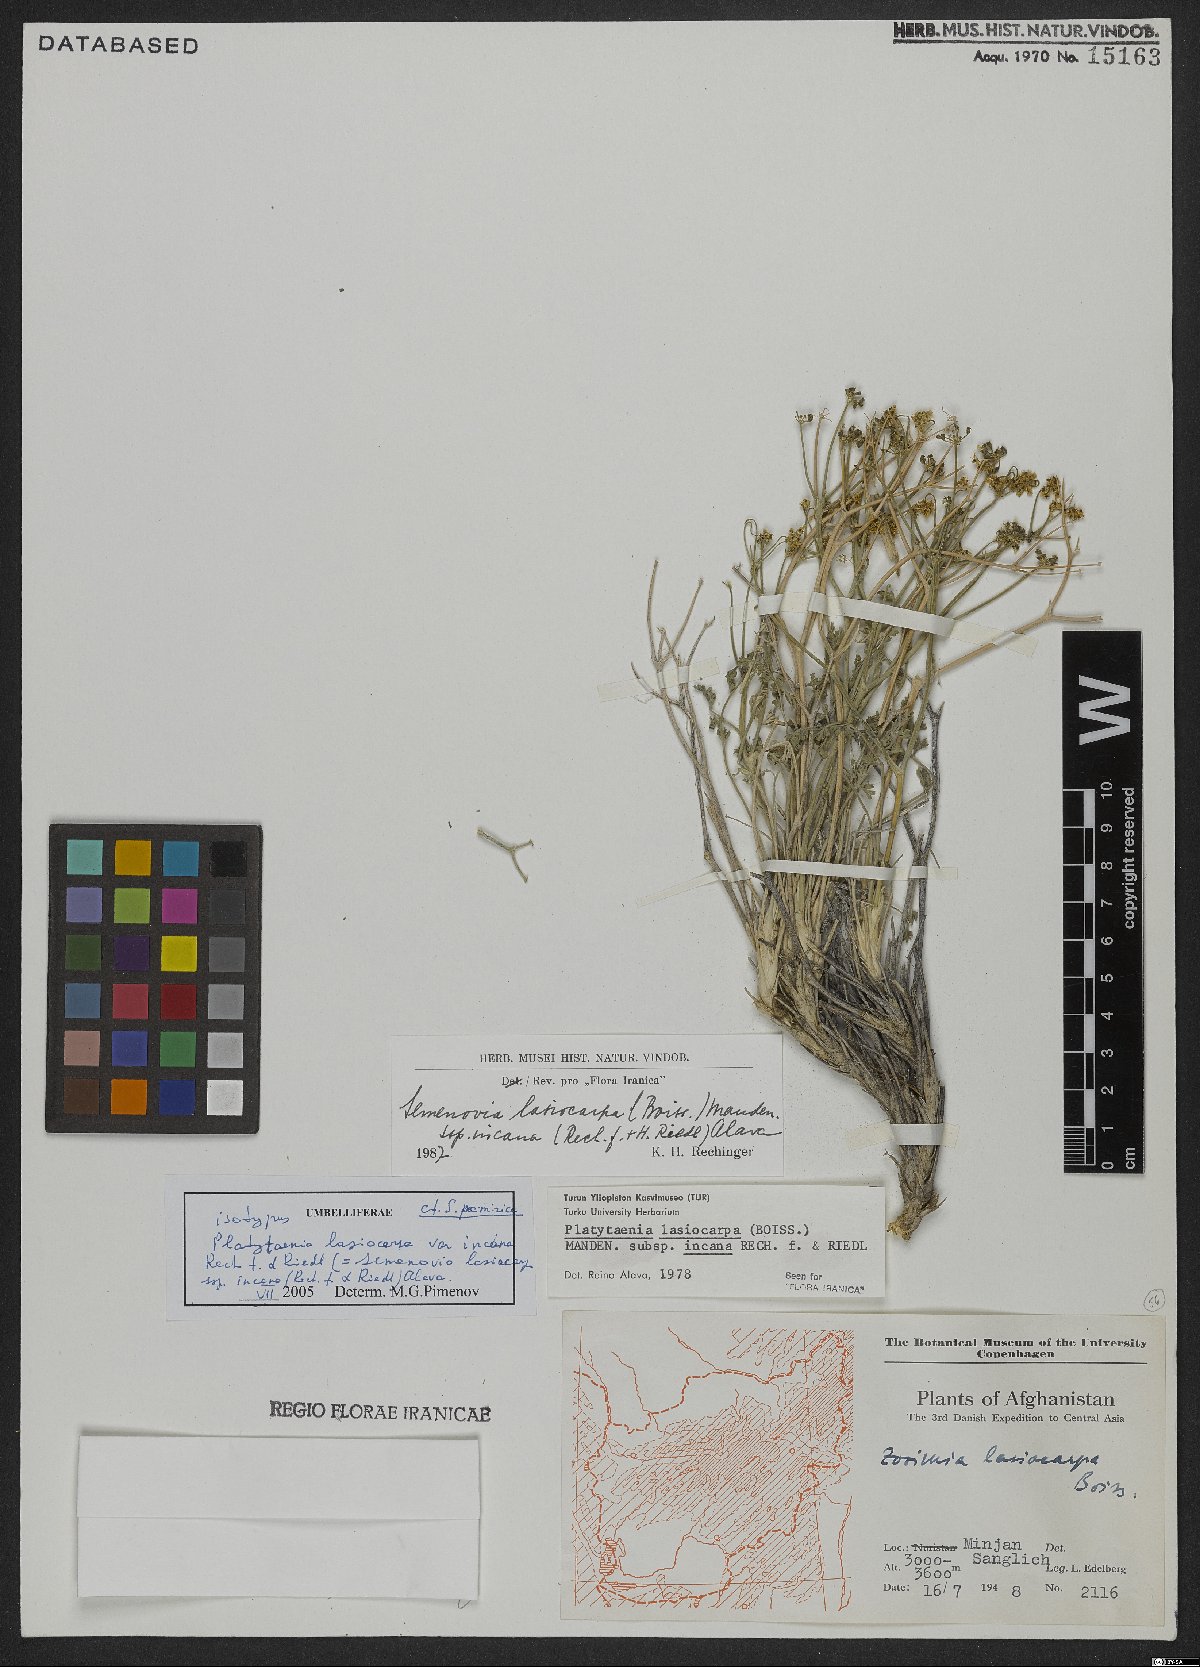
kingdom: Plantae
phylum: Tracheophyta
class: Magnoliopsida
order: Apiales
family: Apiaceae
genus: Semenovia
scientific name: Semenovia lasiocarpa
